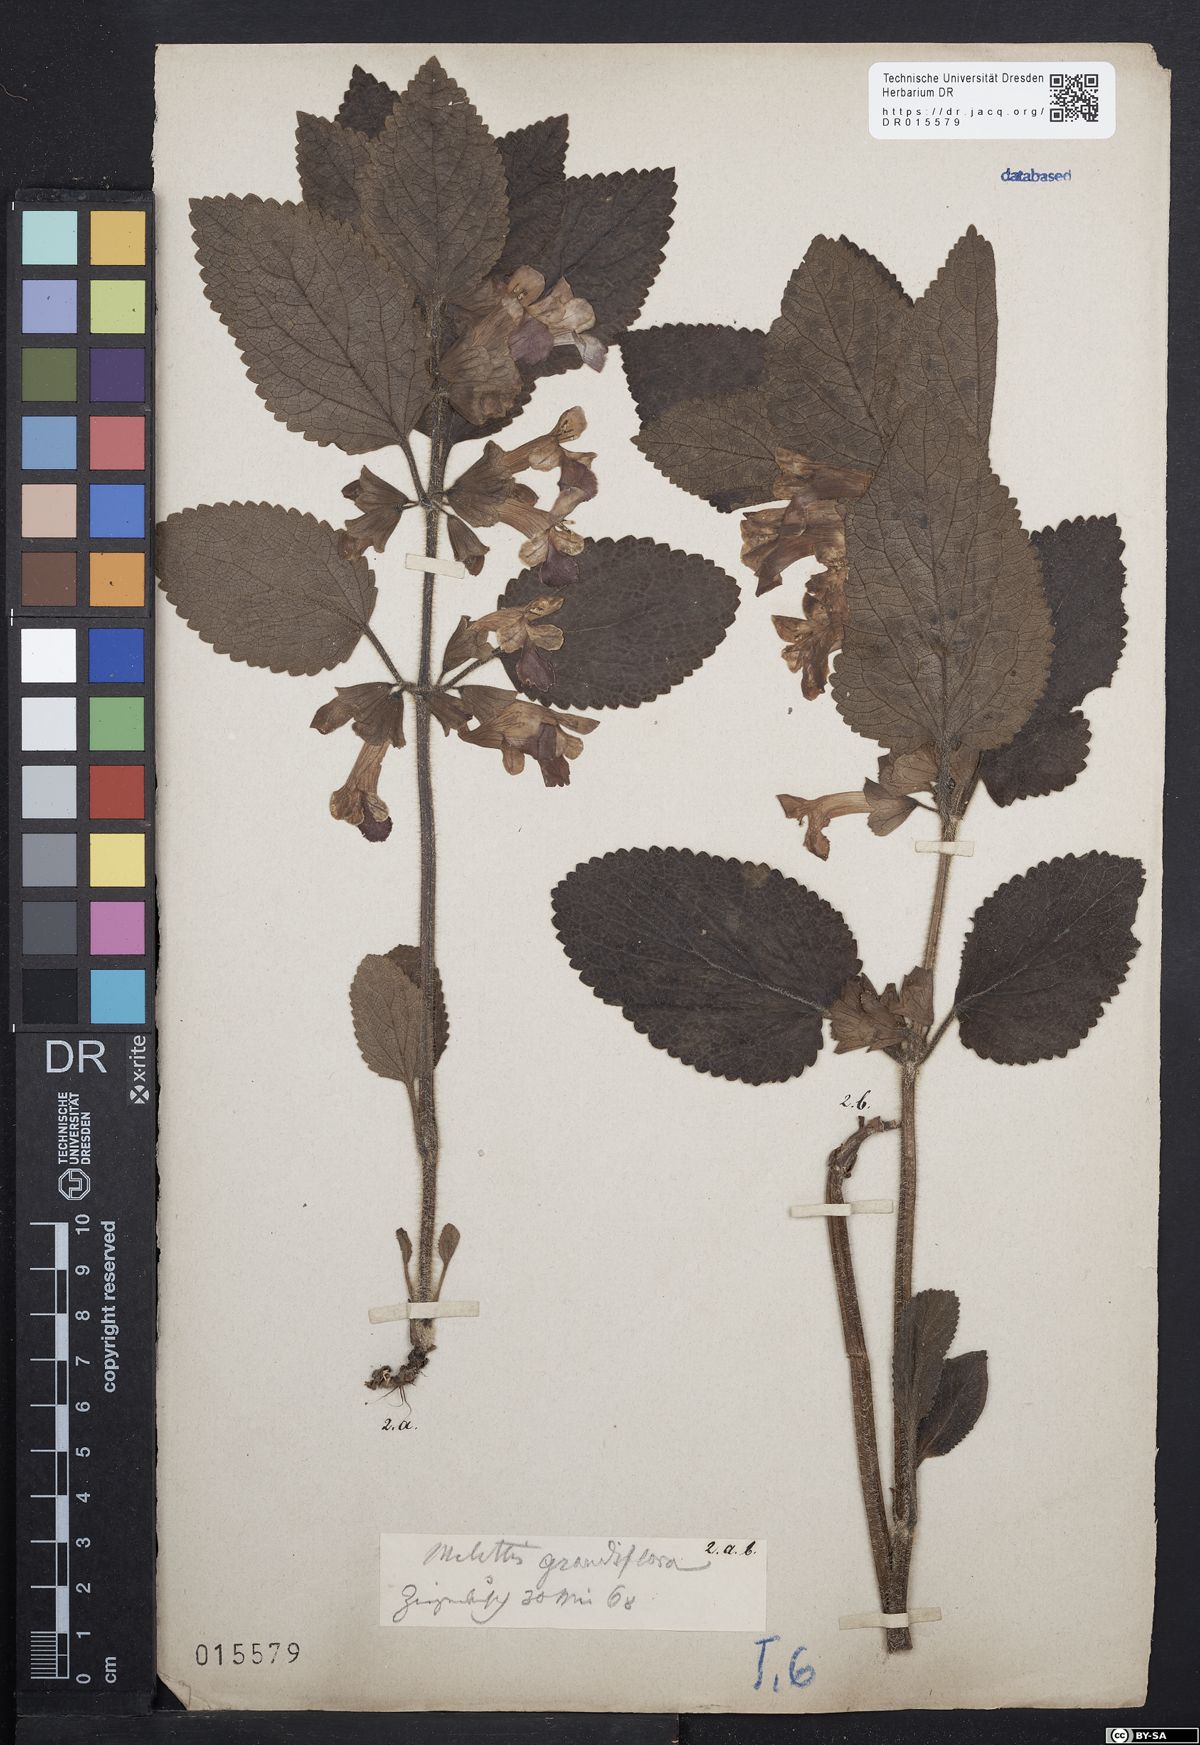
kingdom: Plantae
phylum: Tracheophyta
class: Magnoliopsida
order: Lamiales
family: Lamiaceae
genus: Melittis
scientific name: Melittis melissophyllum
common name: Bastard balm
